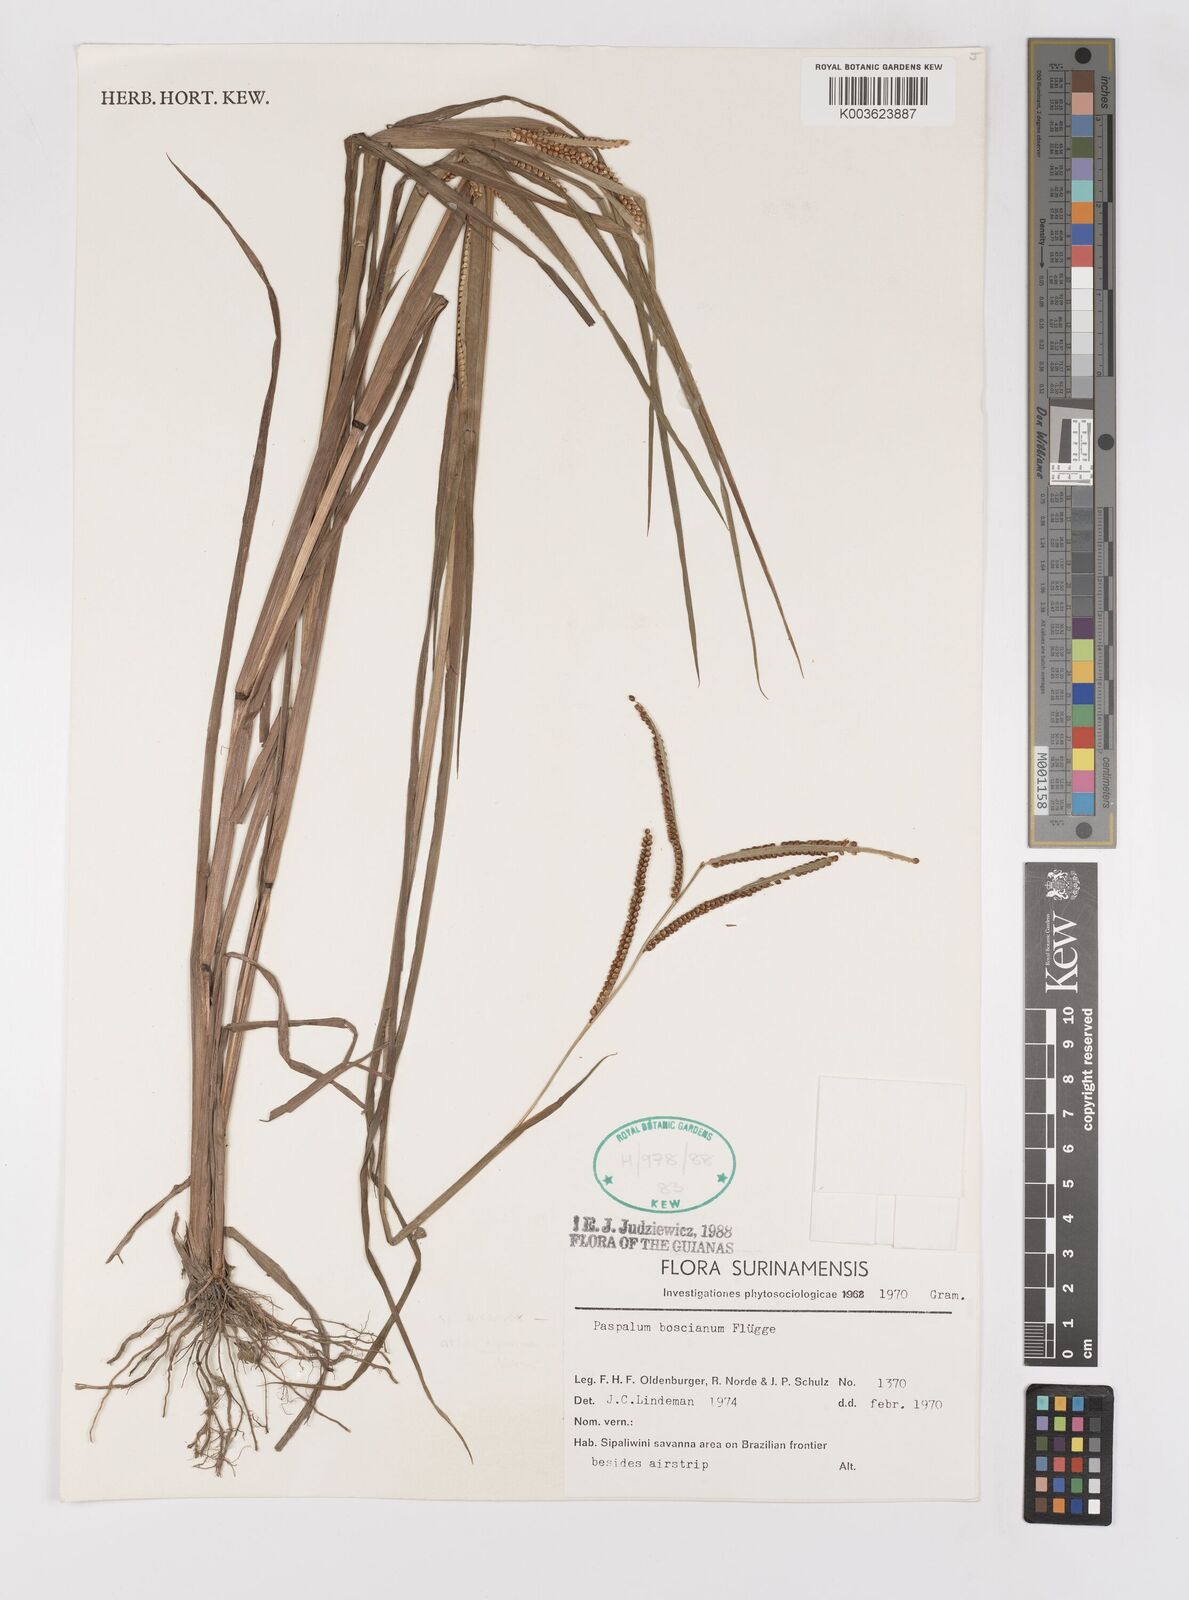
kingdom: Plantae
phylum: Tracheophyta
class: Liliopsida
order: Poales
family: Poaceae
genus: Paspalum
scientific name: Paspalum scrobiculatum
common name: Kodo millet
